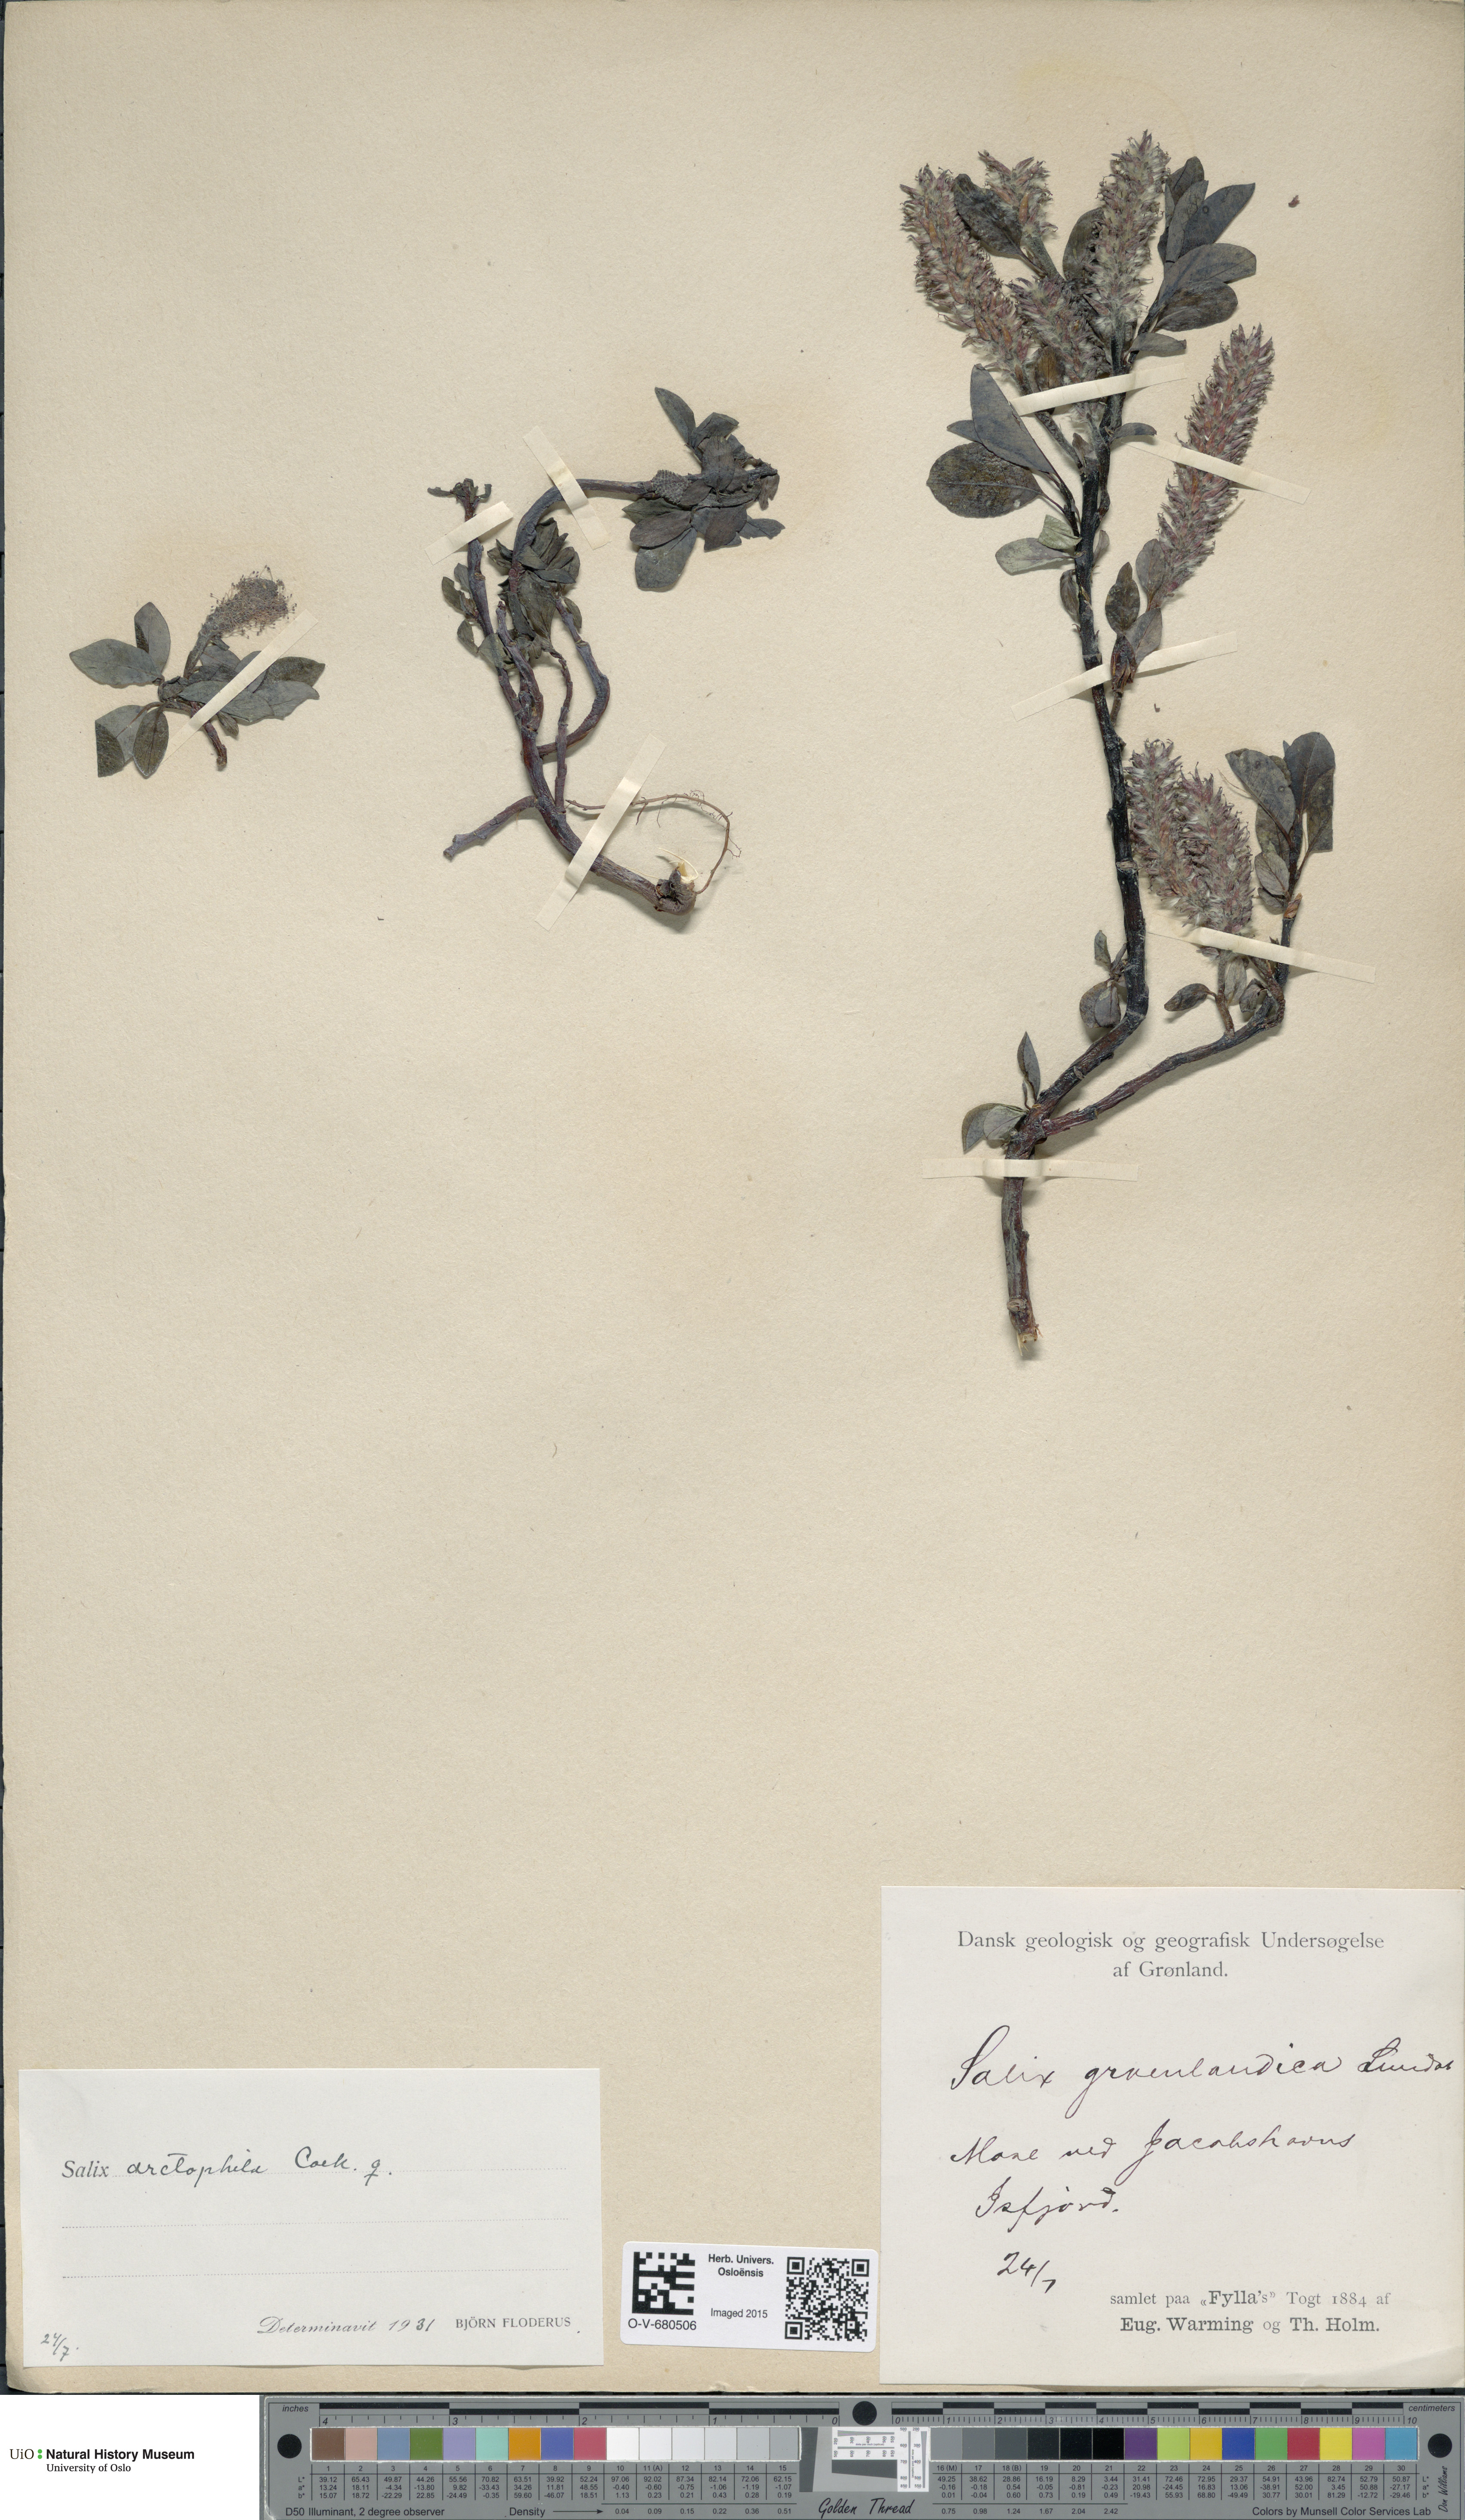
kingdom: Plantae
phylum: Tracheophyta
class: Magnoliopsida
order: Malpighiales
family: Salicaceae
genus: Salix
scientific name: Salix arctophila
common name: Greenland willow
